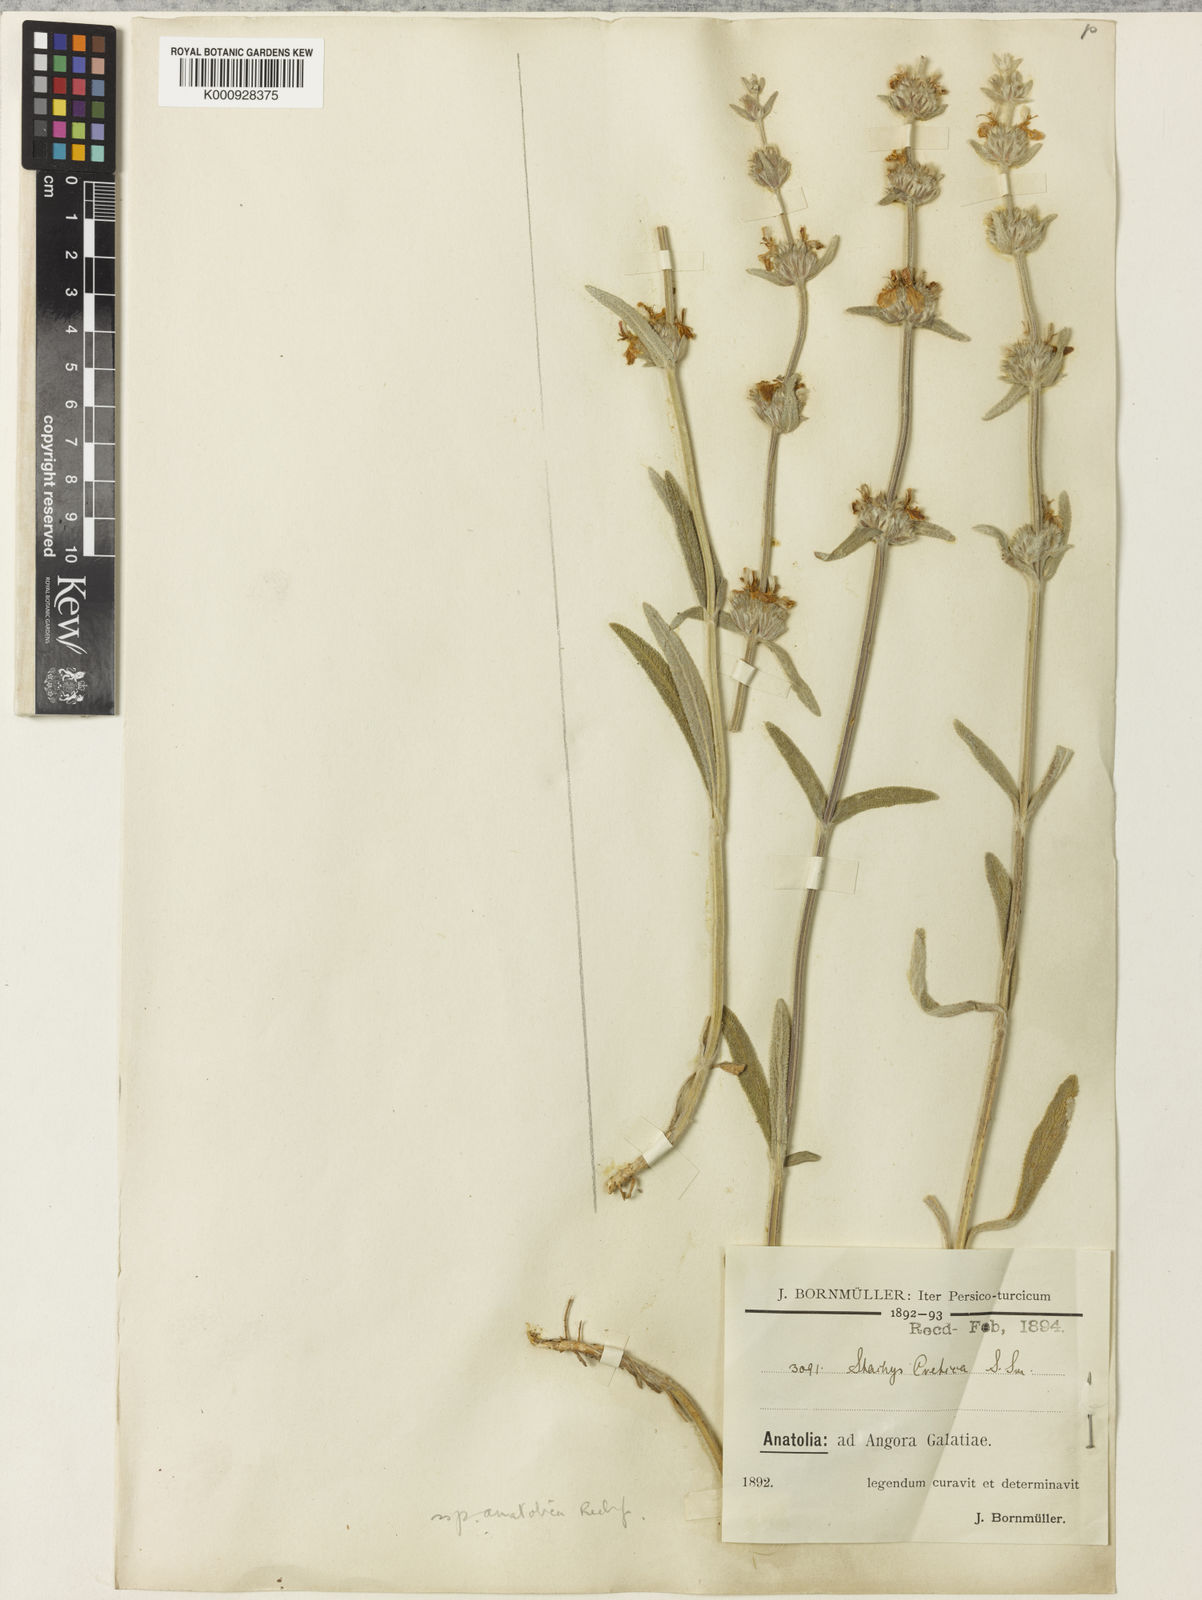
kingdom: Plantae
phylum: Tracheophyta
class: Magnoliopsida
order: Lamiales
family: Lamiaceae
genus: Stachys
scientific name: Stachys cretica
